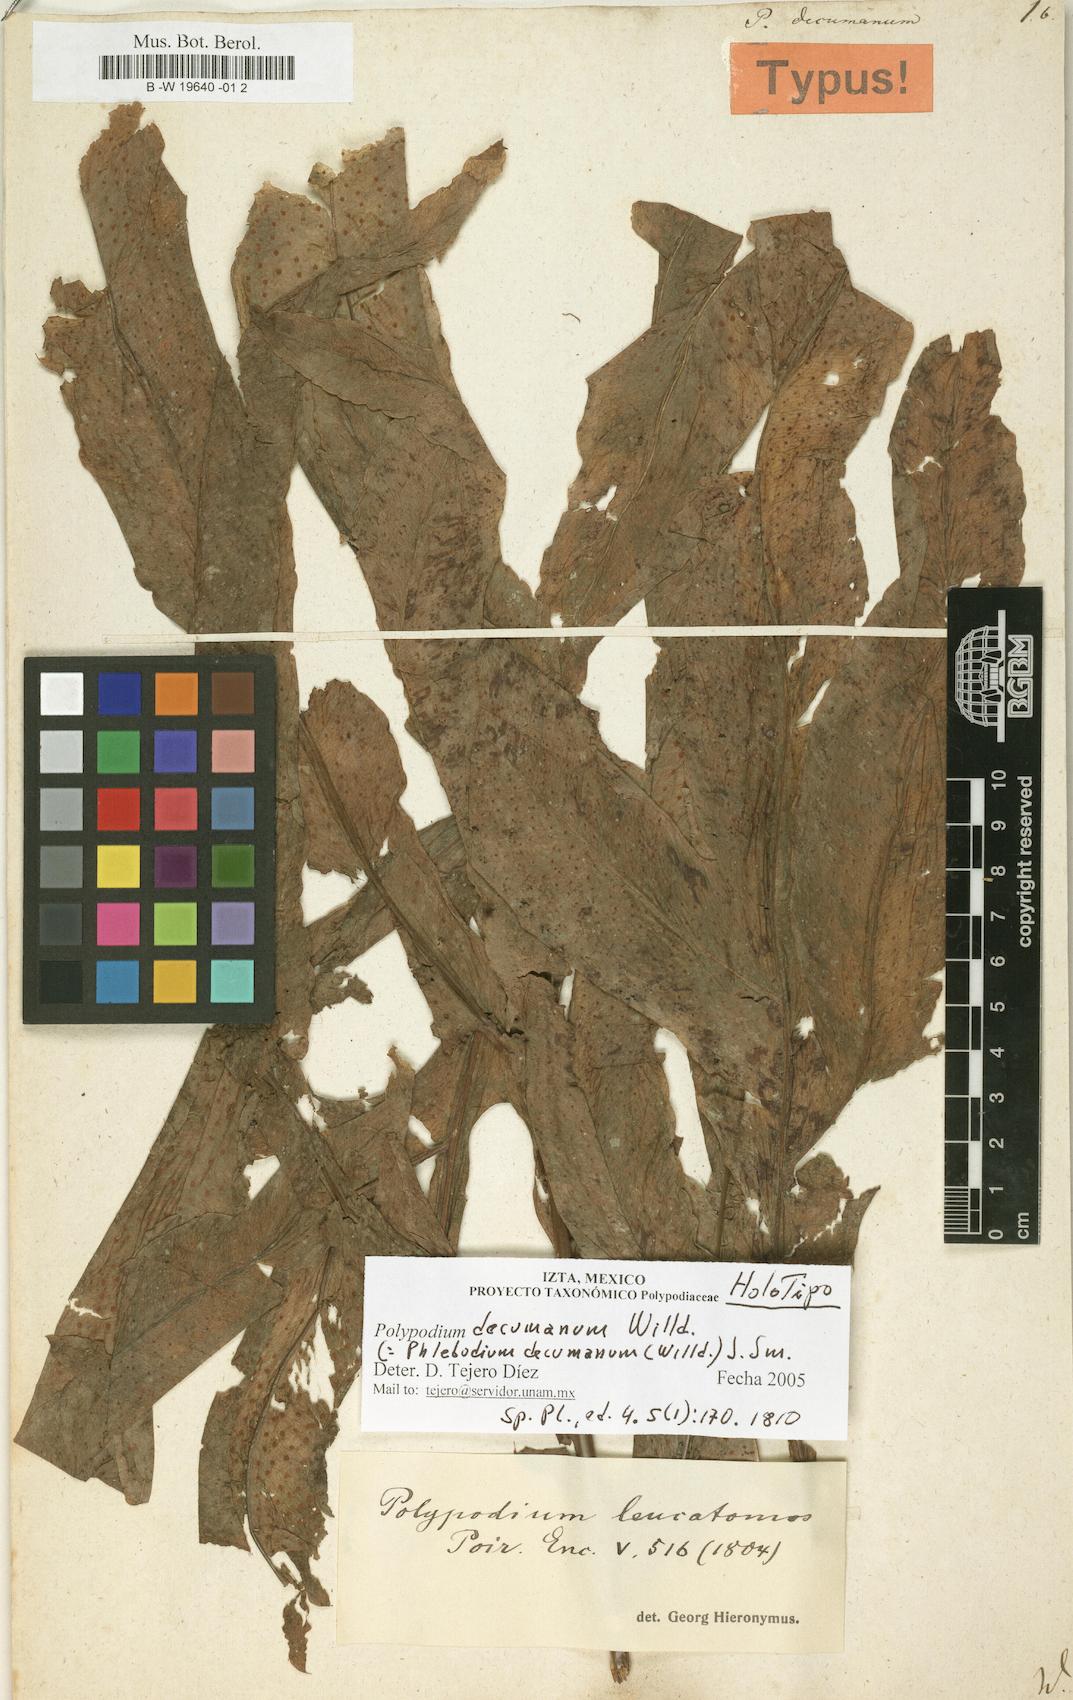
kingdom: Plantae
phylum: Tracheophyta
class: Polypodiopsida
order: Polypodiales
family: Polypodiaceae
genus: Phlebodium
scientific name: Phlebodium decumanum
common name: Golden polypod
